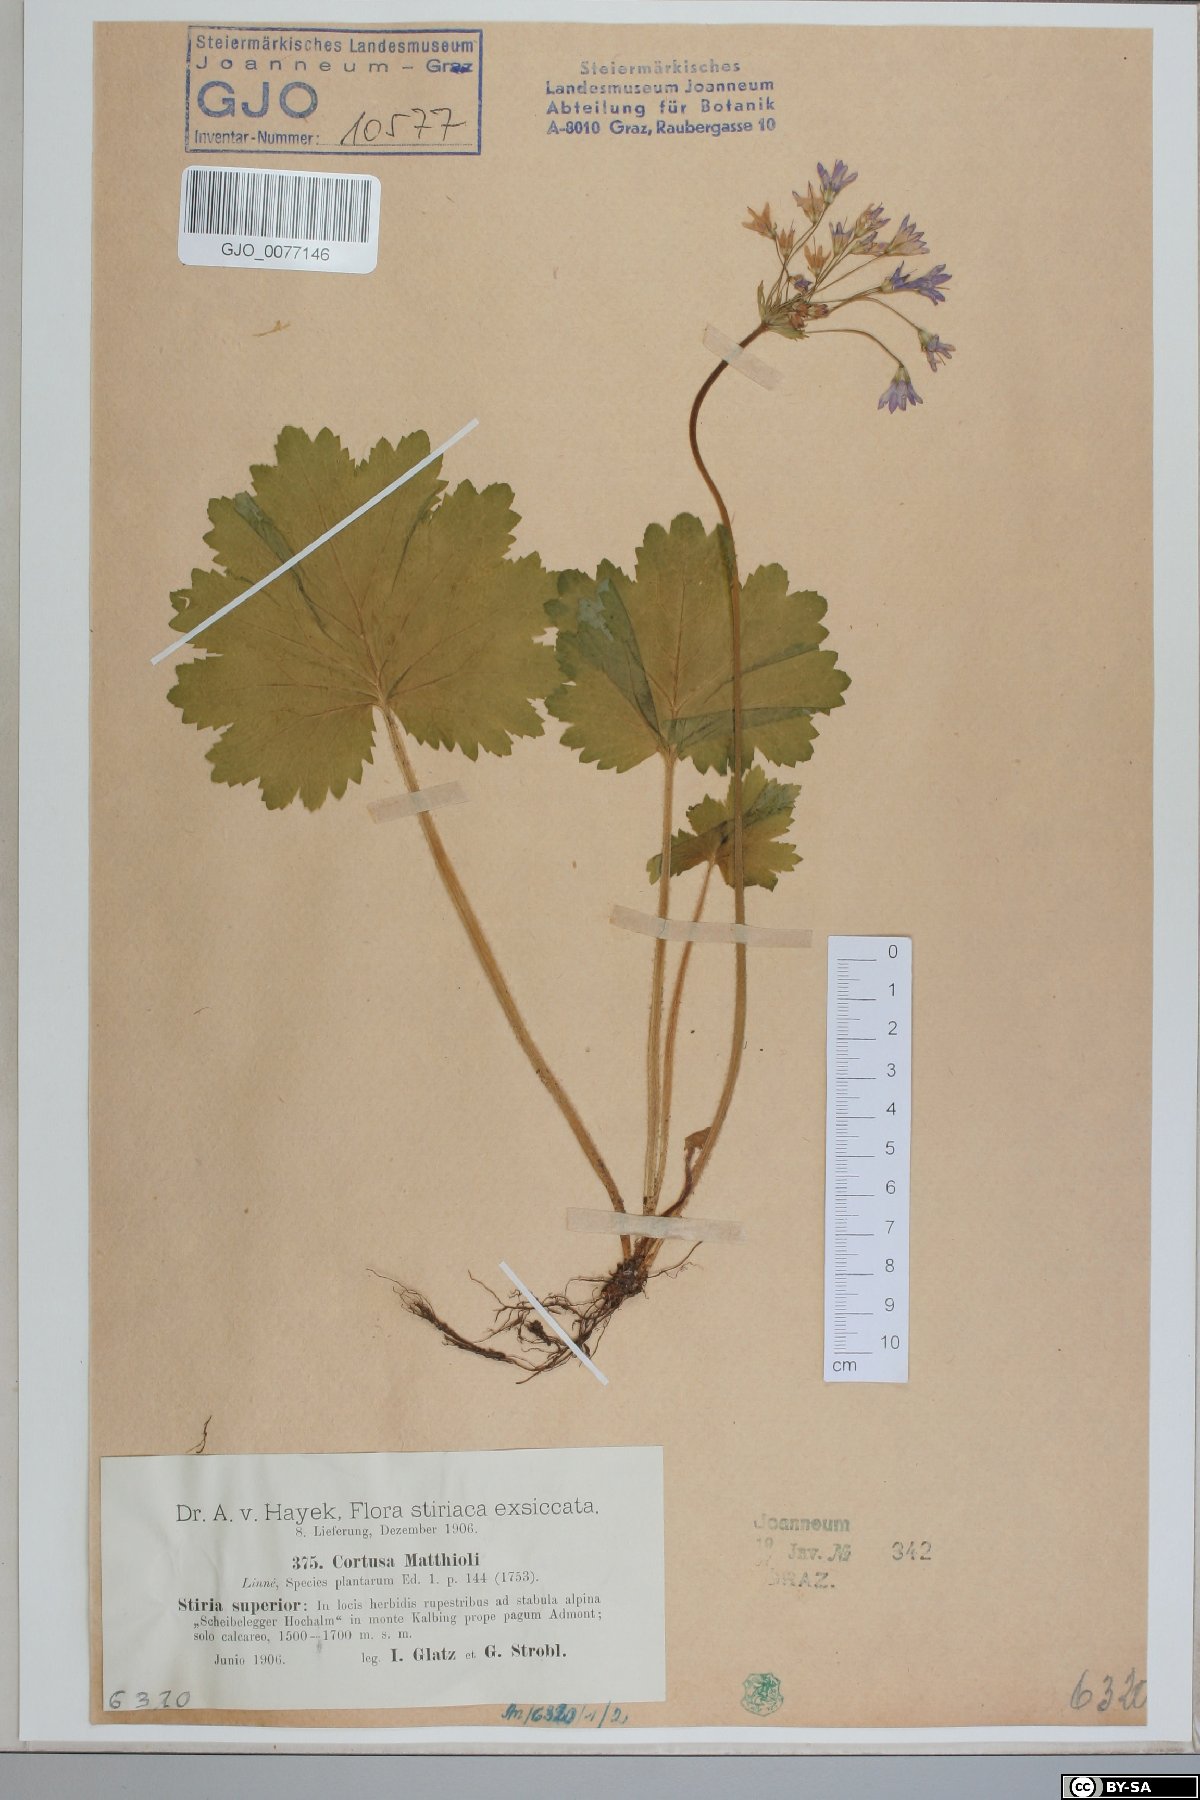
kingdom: Plantae
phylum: Tracheophyta
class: Magnoliopsida
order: Ericales
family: Primulaceae
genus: Primula
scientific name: Primula matthioli
